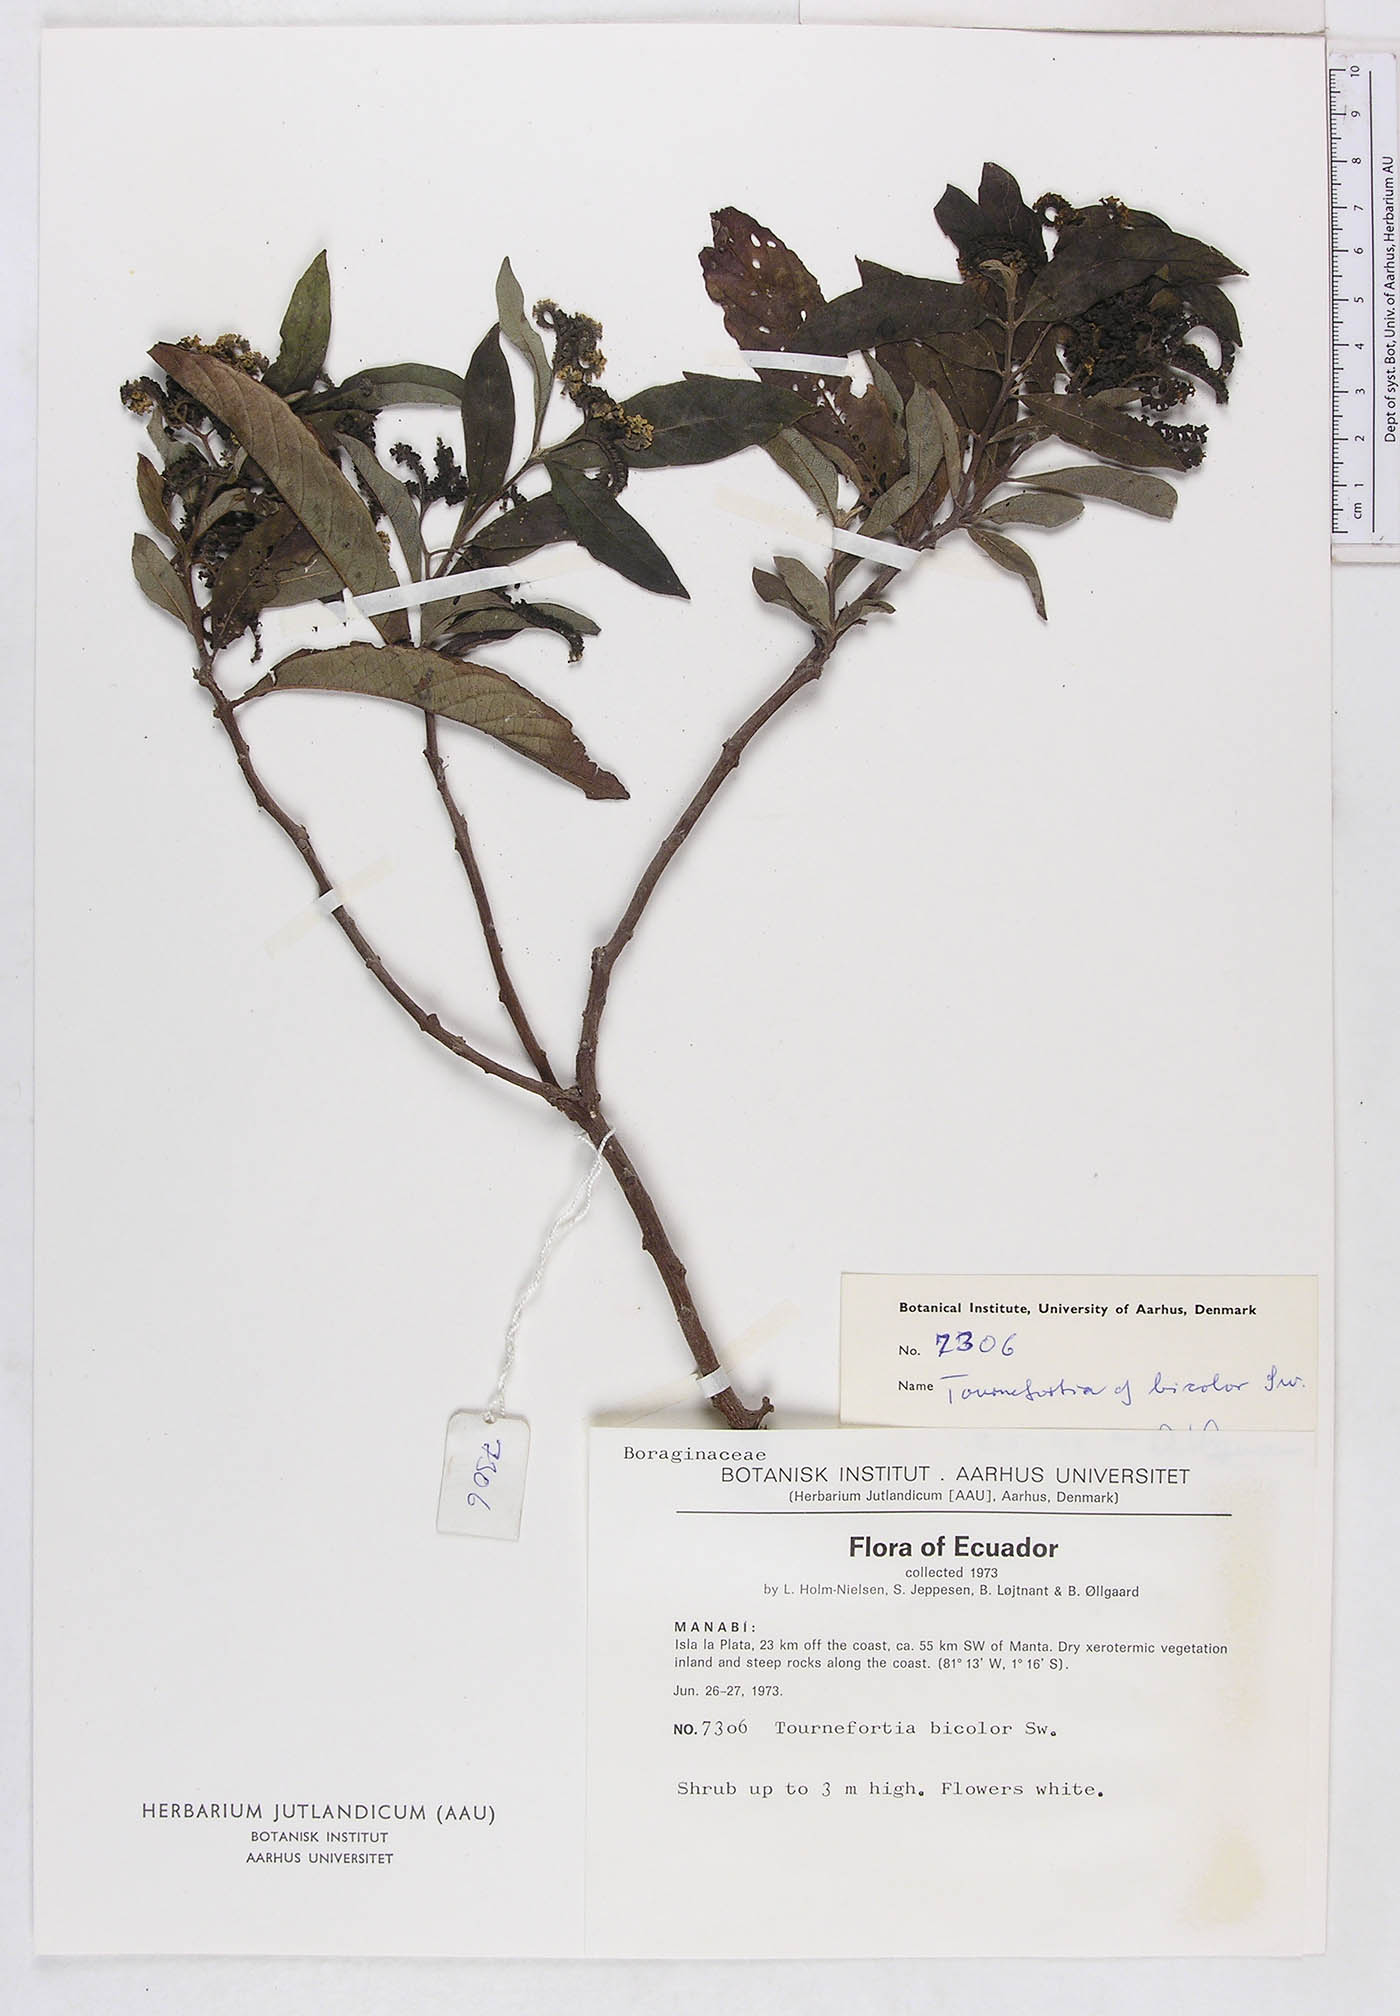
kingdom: Plantae
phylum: Tracheophyta
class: Magnoliopsida
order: Boraginales
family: Heliotropiaceae
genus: Tournefortia
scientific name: Tournefortia
